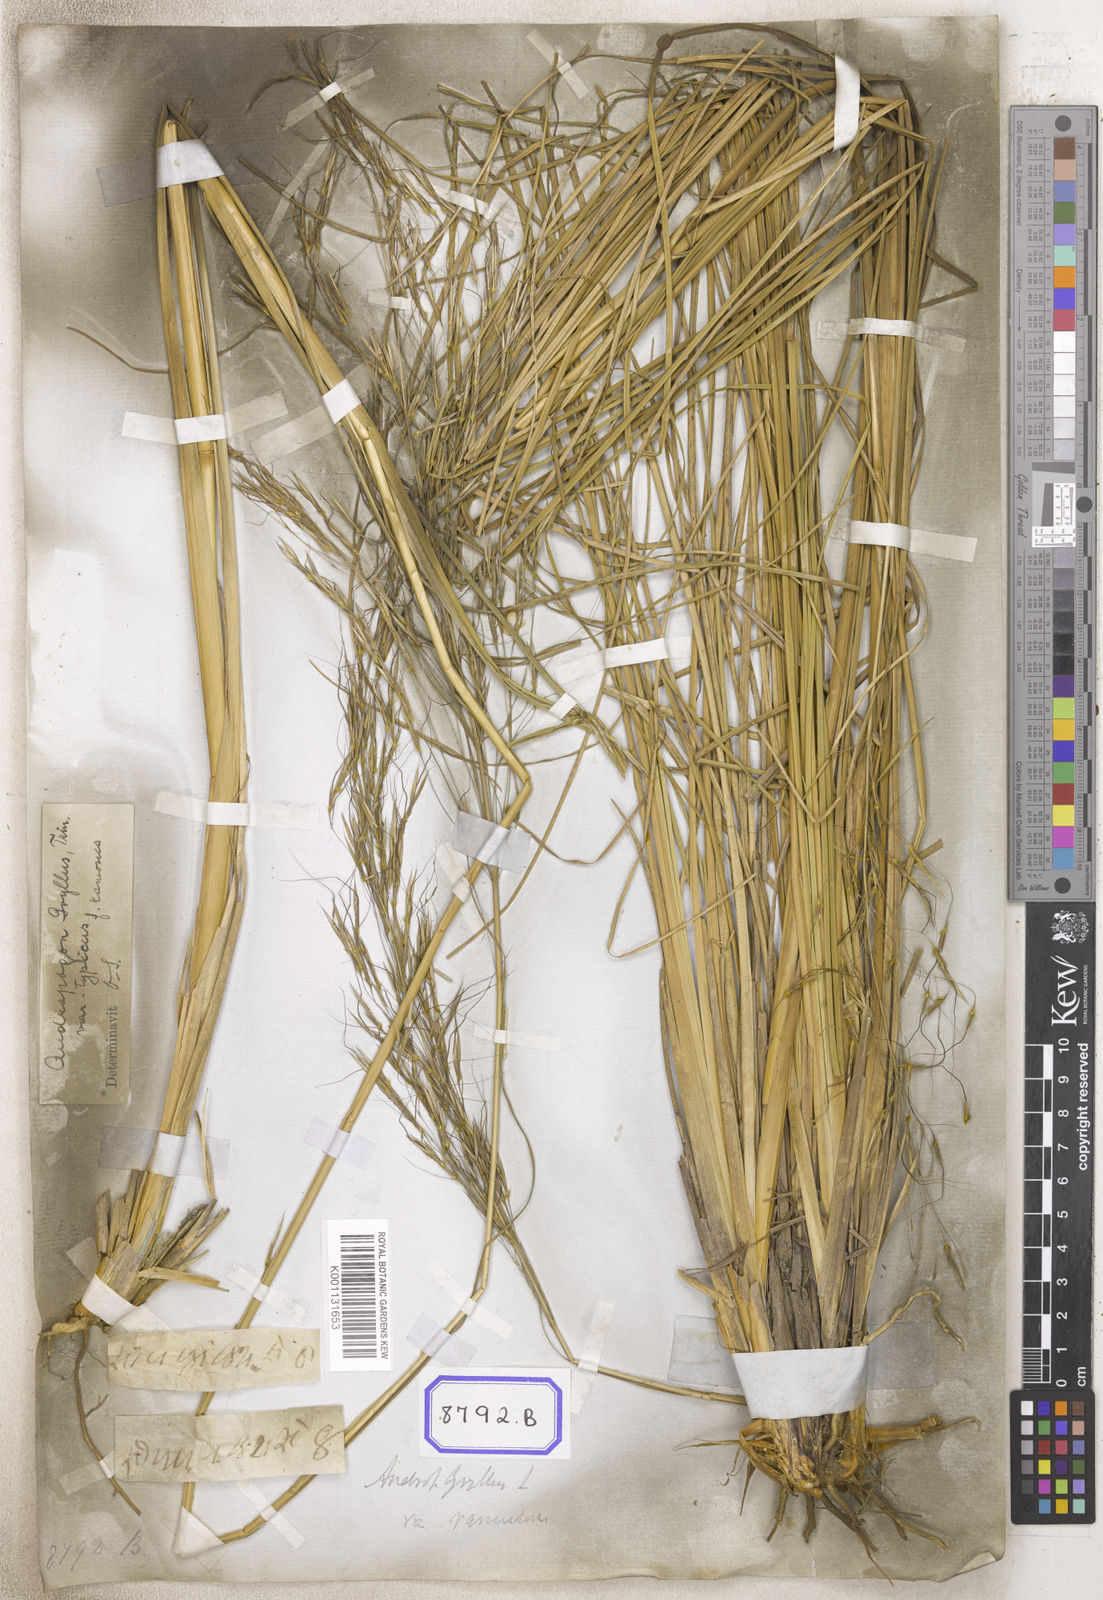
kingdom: Plantae
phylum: Tracheophyta
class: Liliopsida
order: Poales
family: Poaceae
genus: Chrysopogon
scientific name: Chrysopogon
